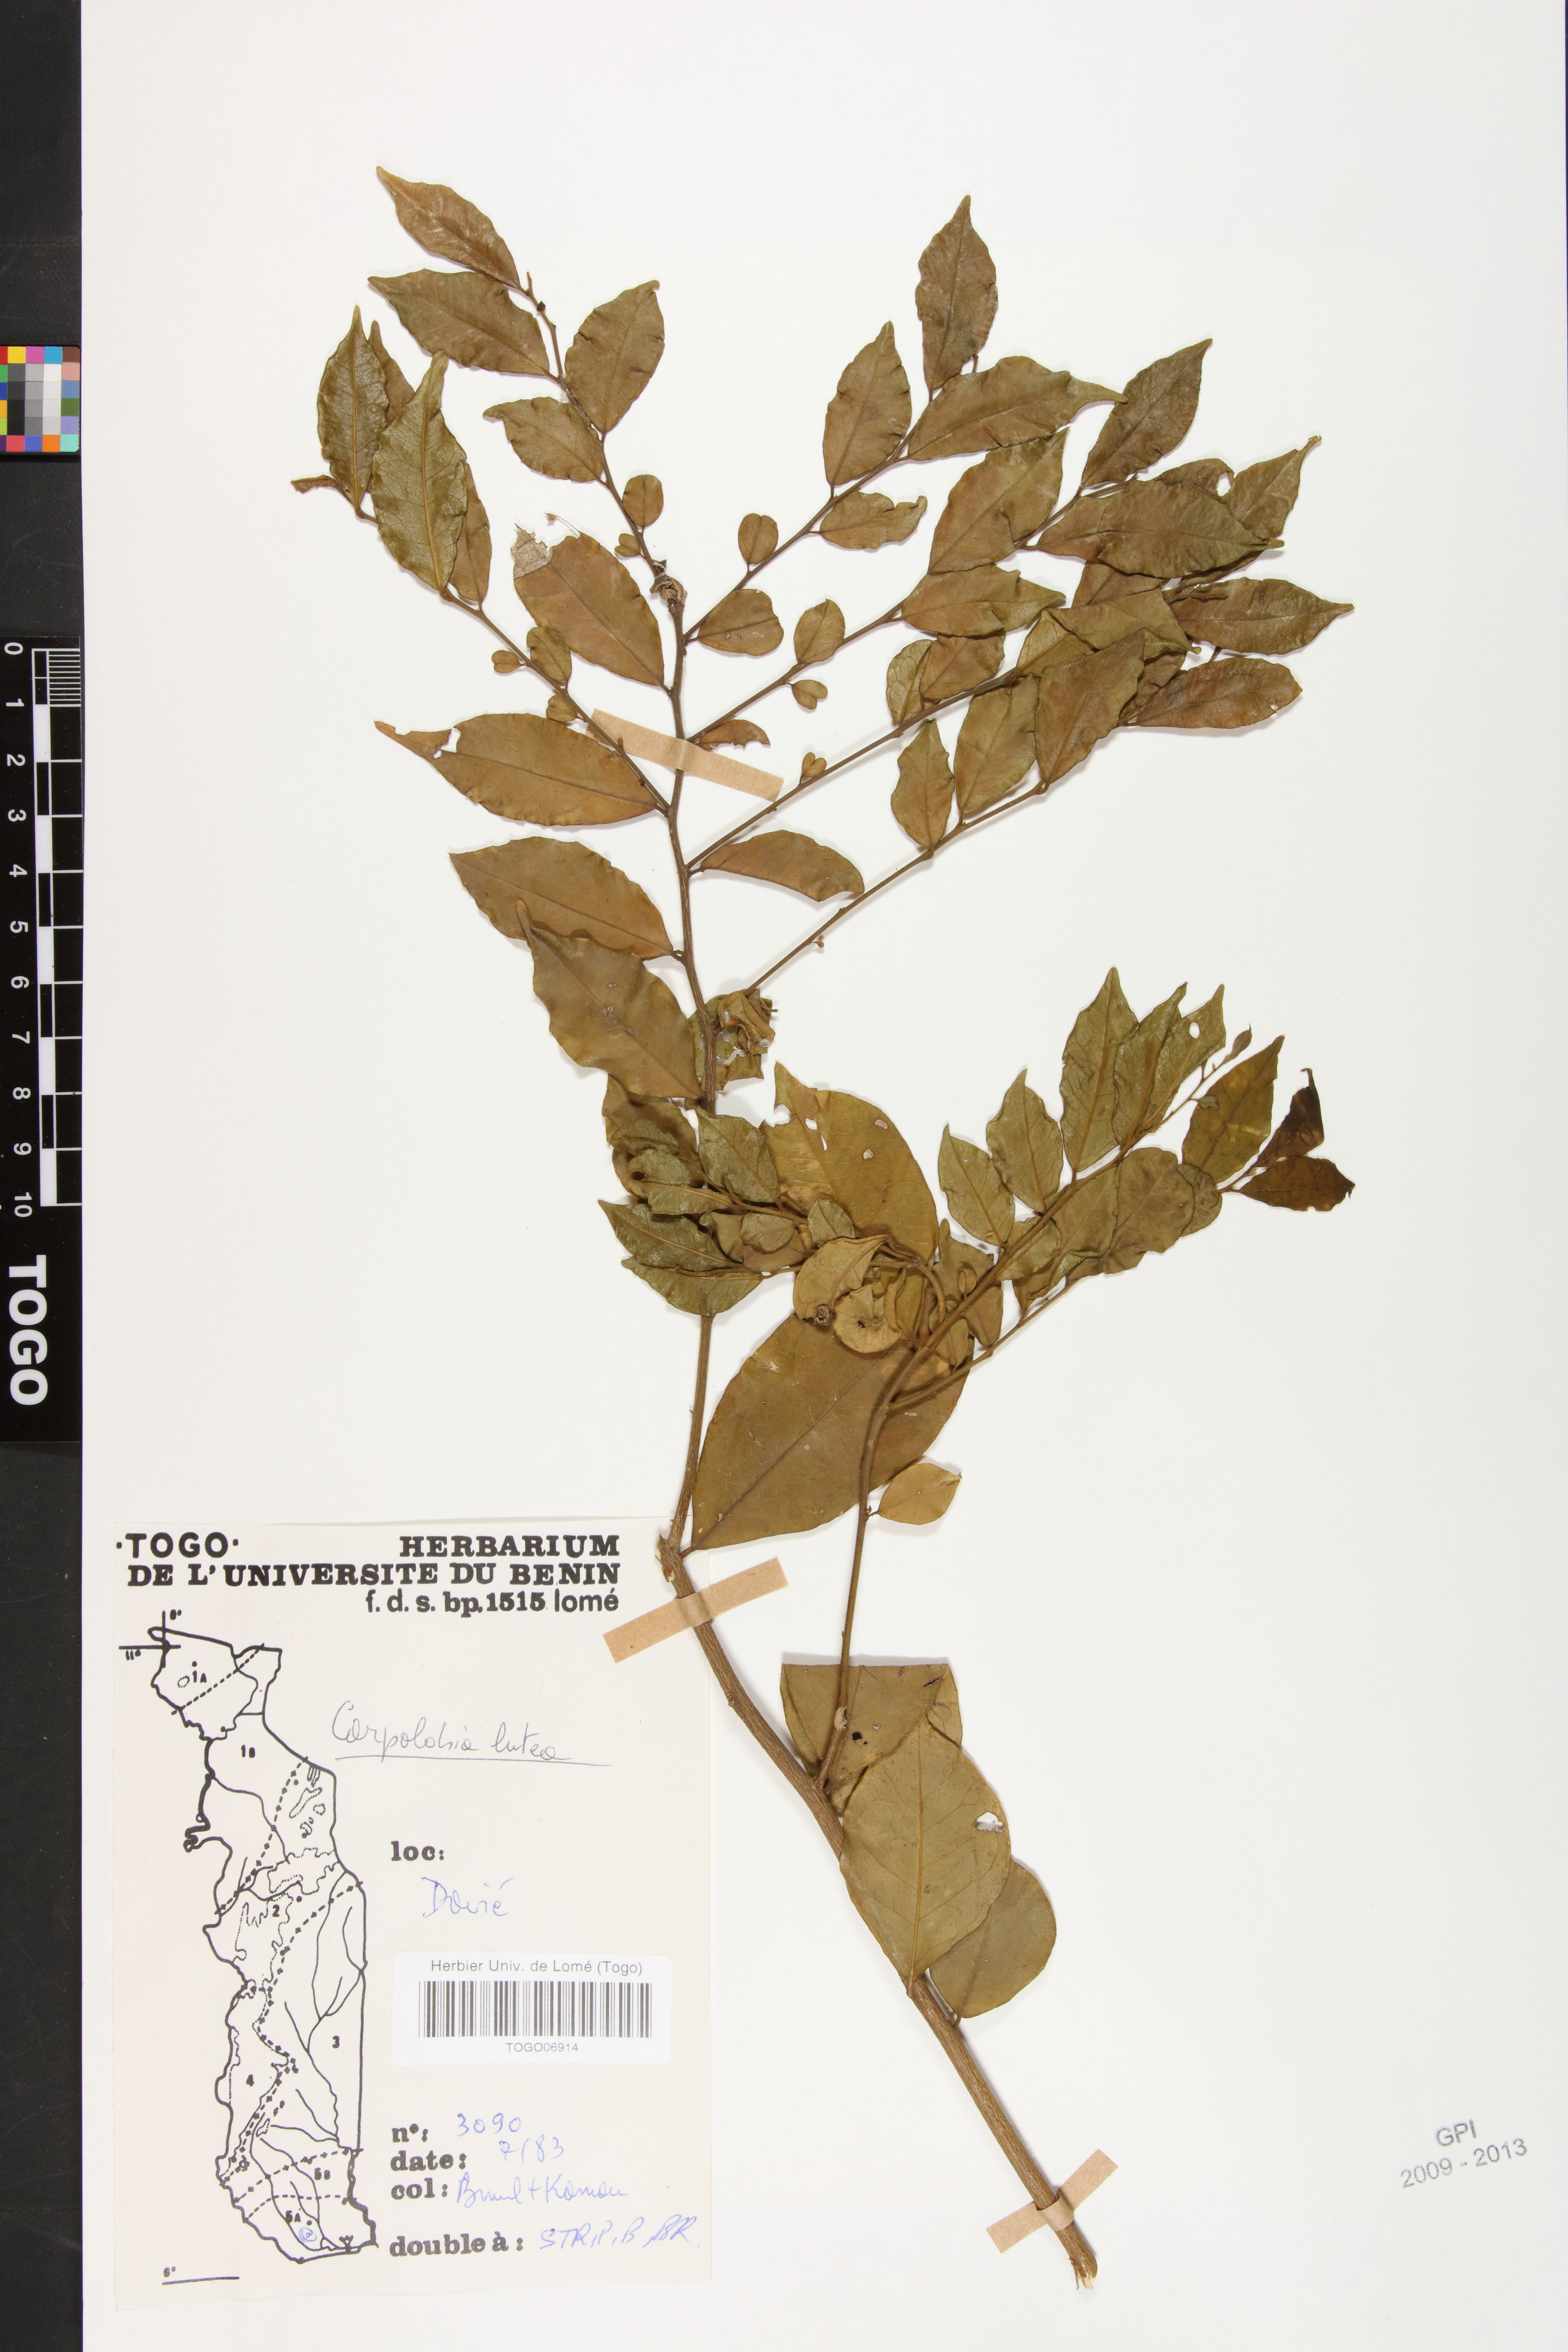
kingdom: Plantae
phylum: Tracheophyta
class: Magnoliopsida
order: Fabales
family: Polygalaceae
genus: Carpolobia
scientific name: Carpolobia lutea
